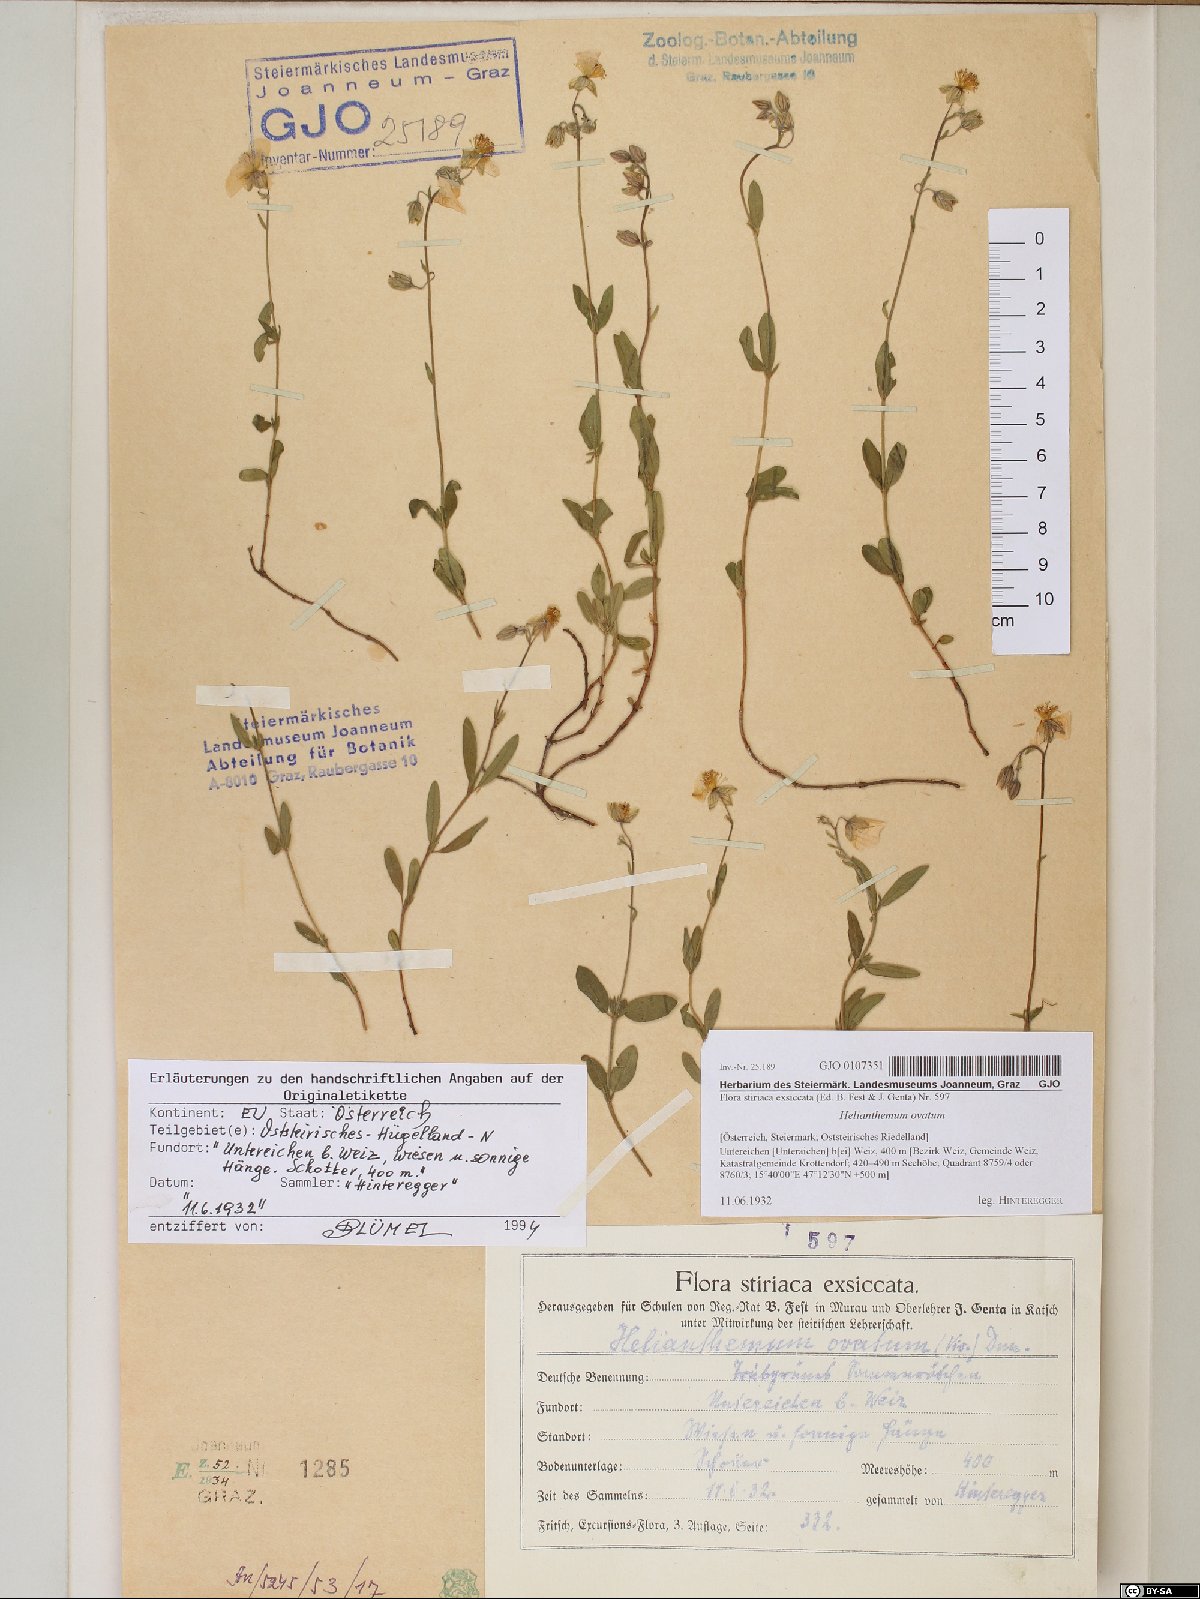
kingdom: Plantae
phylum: Tracheophyta
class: Magnoliopsida
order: Malvales
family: Cistaceae
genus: Helianthemum
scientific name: Helianthemum nummularium
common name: Common rock-rose
